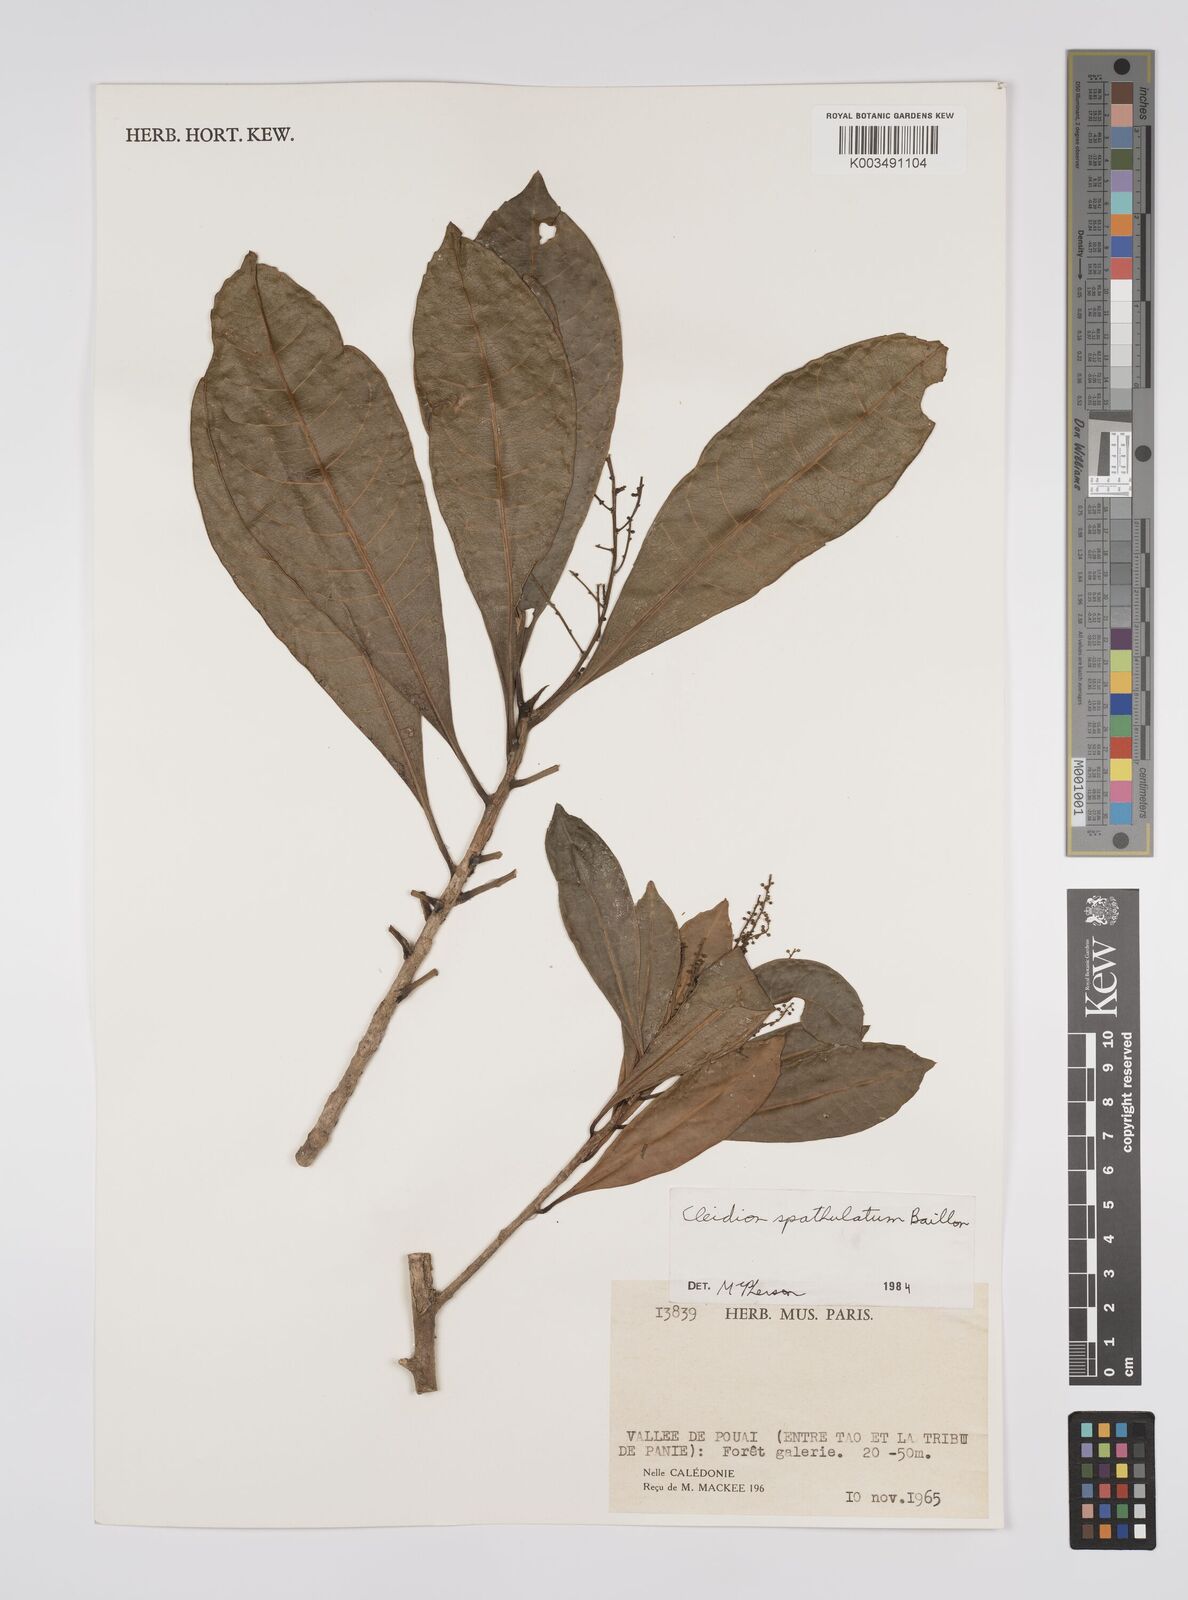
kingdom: Plantae
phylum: Tracheophyta
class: Magnoliopsida
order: Malpighiales
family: Euphorbiaceae
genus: Cleidion
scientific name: Cleidion spathulatum
